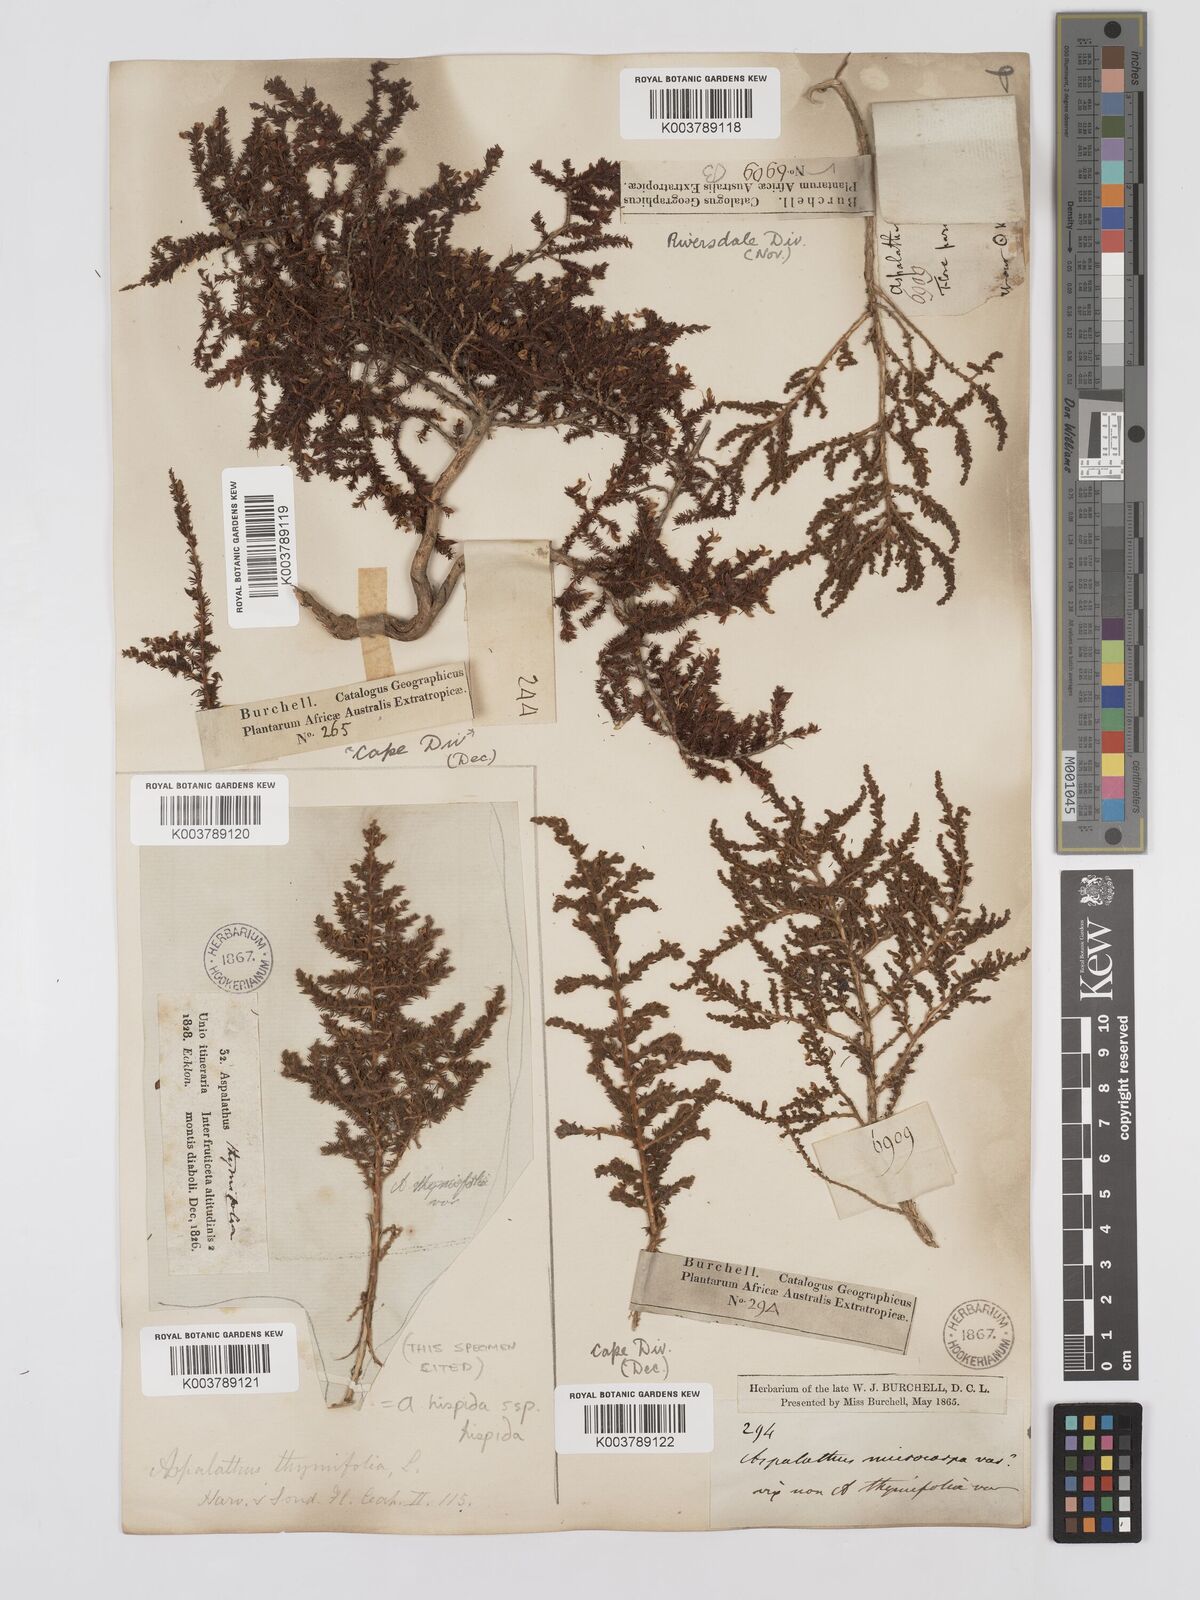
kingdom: Plantae
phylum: Tracheophyta
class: Magnoliopsida
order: Fabales
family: Fabaceae
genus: Aspalathus
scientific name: Aspalathus hispida
